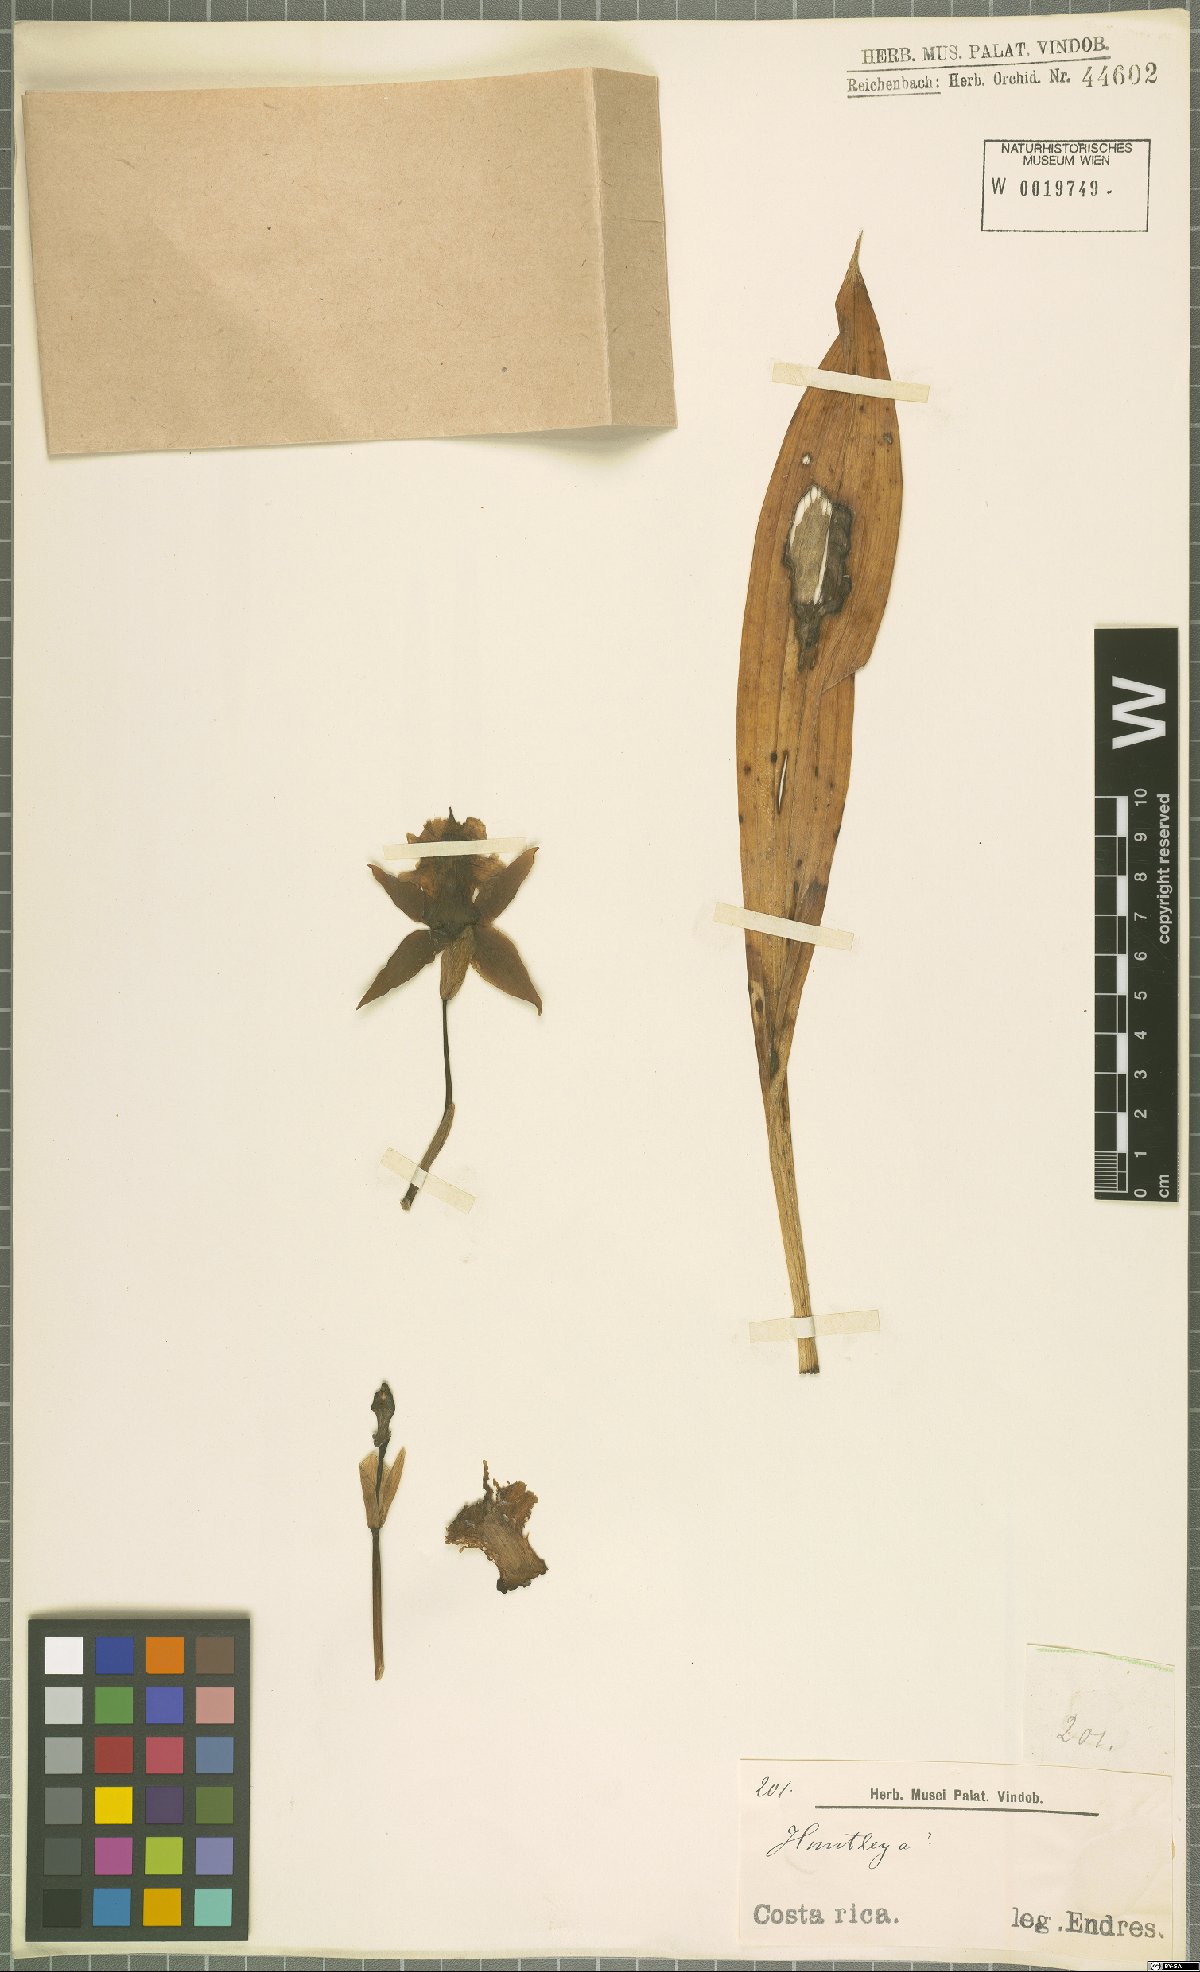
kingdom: Plantae
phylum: Tracheophyta
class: Liliopsida
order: Asparagales
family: Orchidaceae
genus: Huntleya
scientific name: Huntleya
